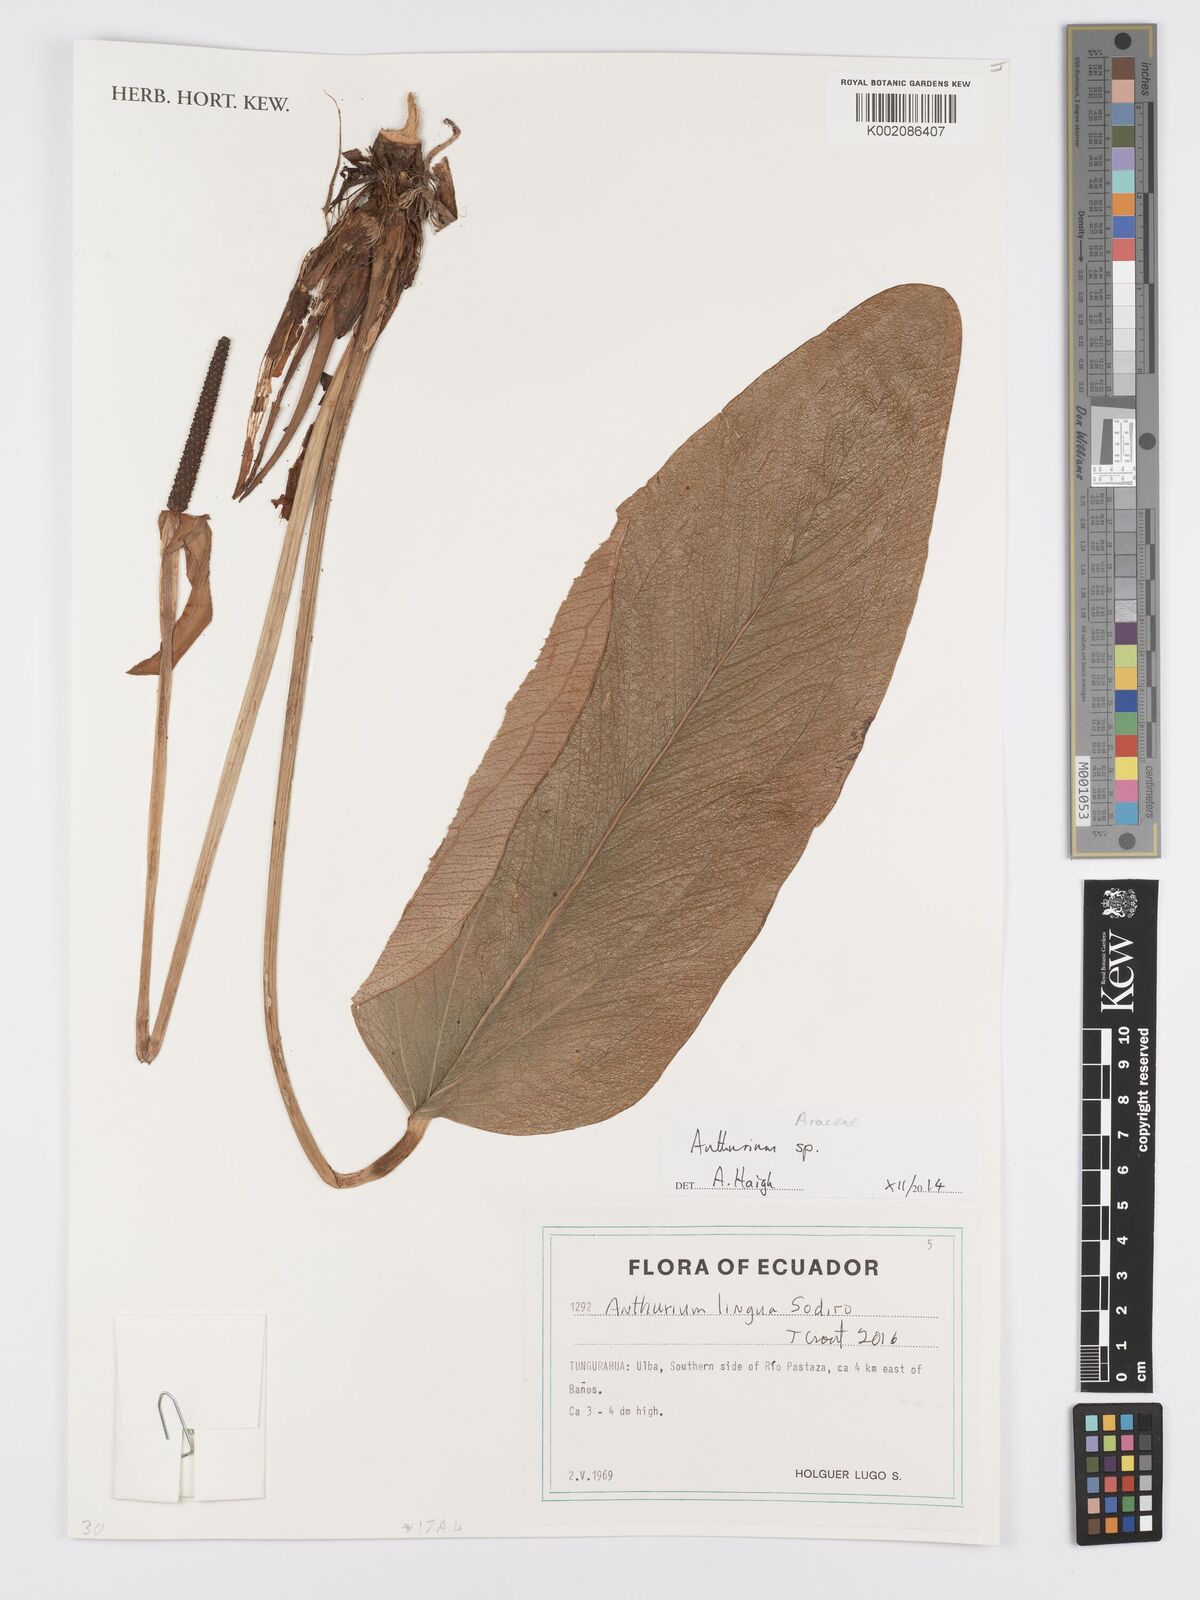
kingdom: Plantae
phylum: Tracheophyta
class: Liliopsida
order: Alismatales
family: Araceae
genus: Anthurium
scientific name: Anthurium lingua
